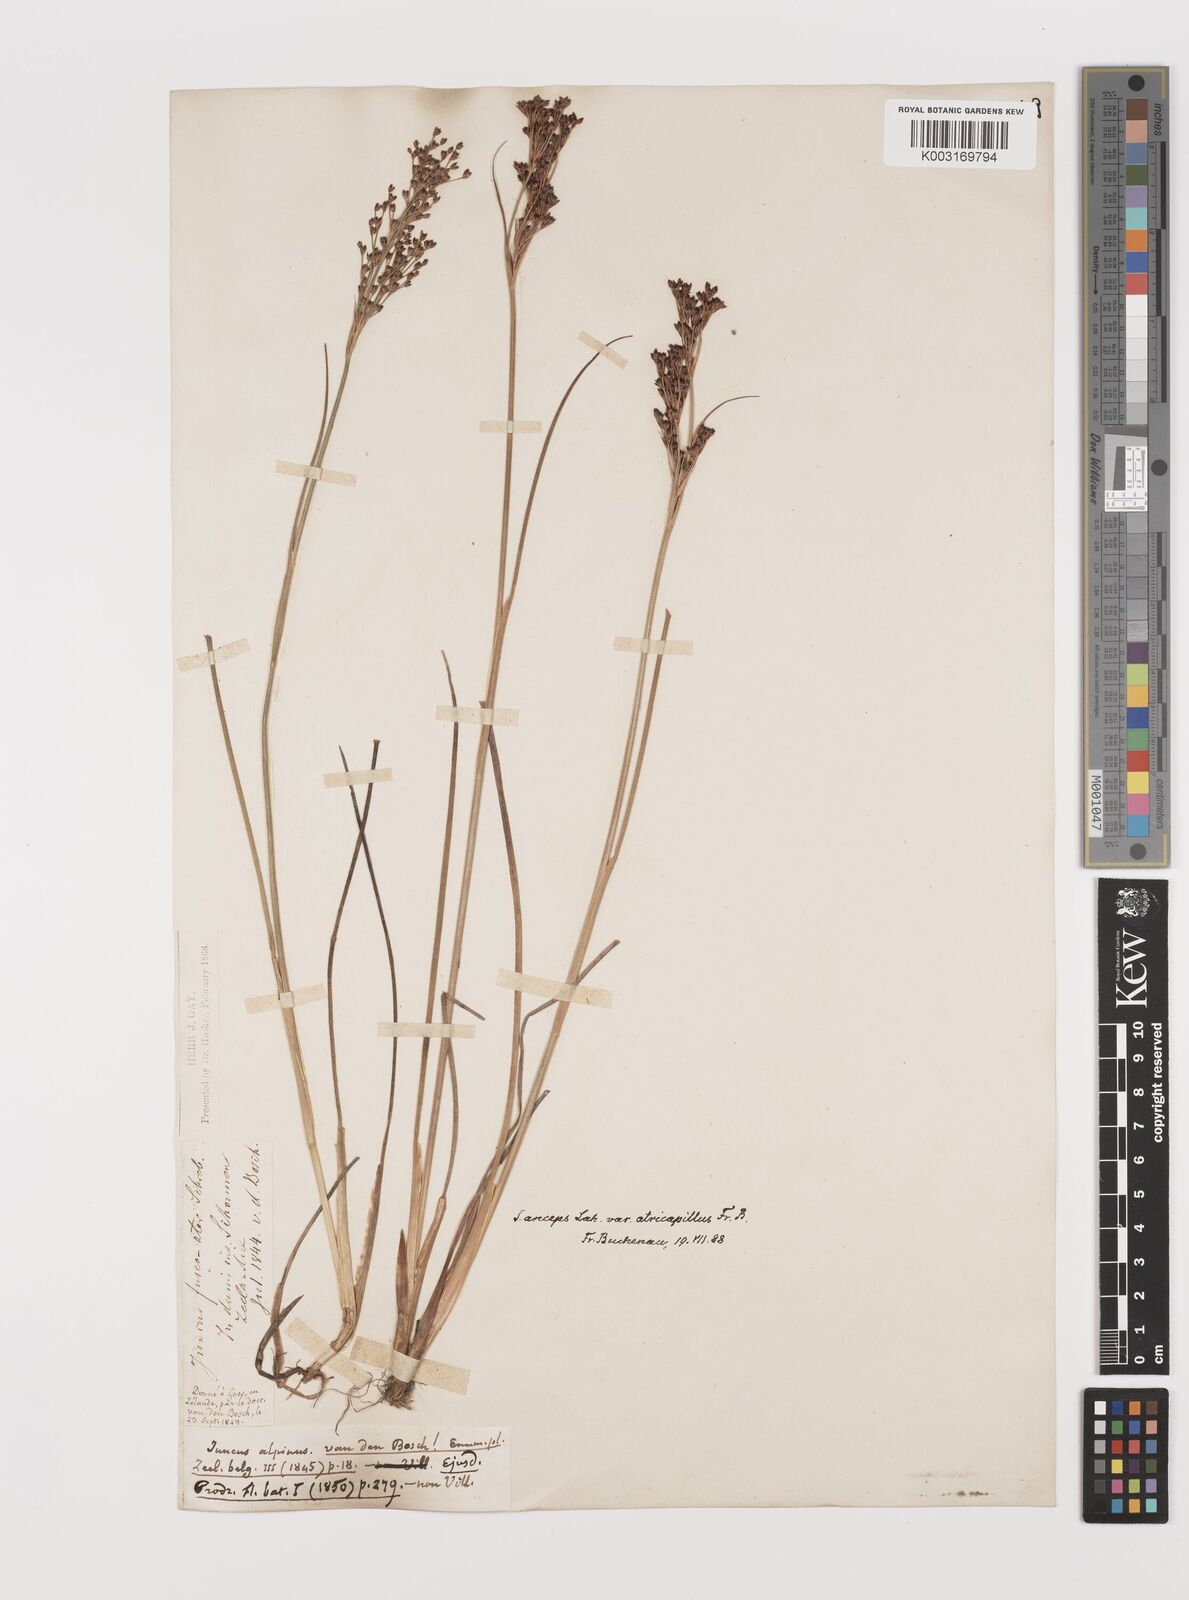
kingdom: Plantae
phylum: Tracheophyta
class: Liliopsida
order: Poales
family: Juncaceae
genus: Juncus
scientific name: Juncus anceps
